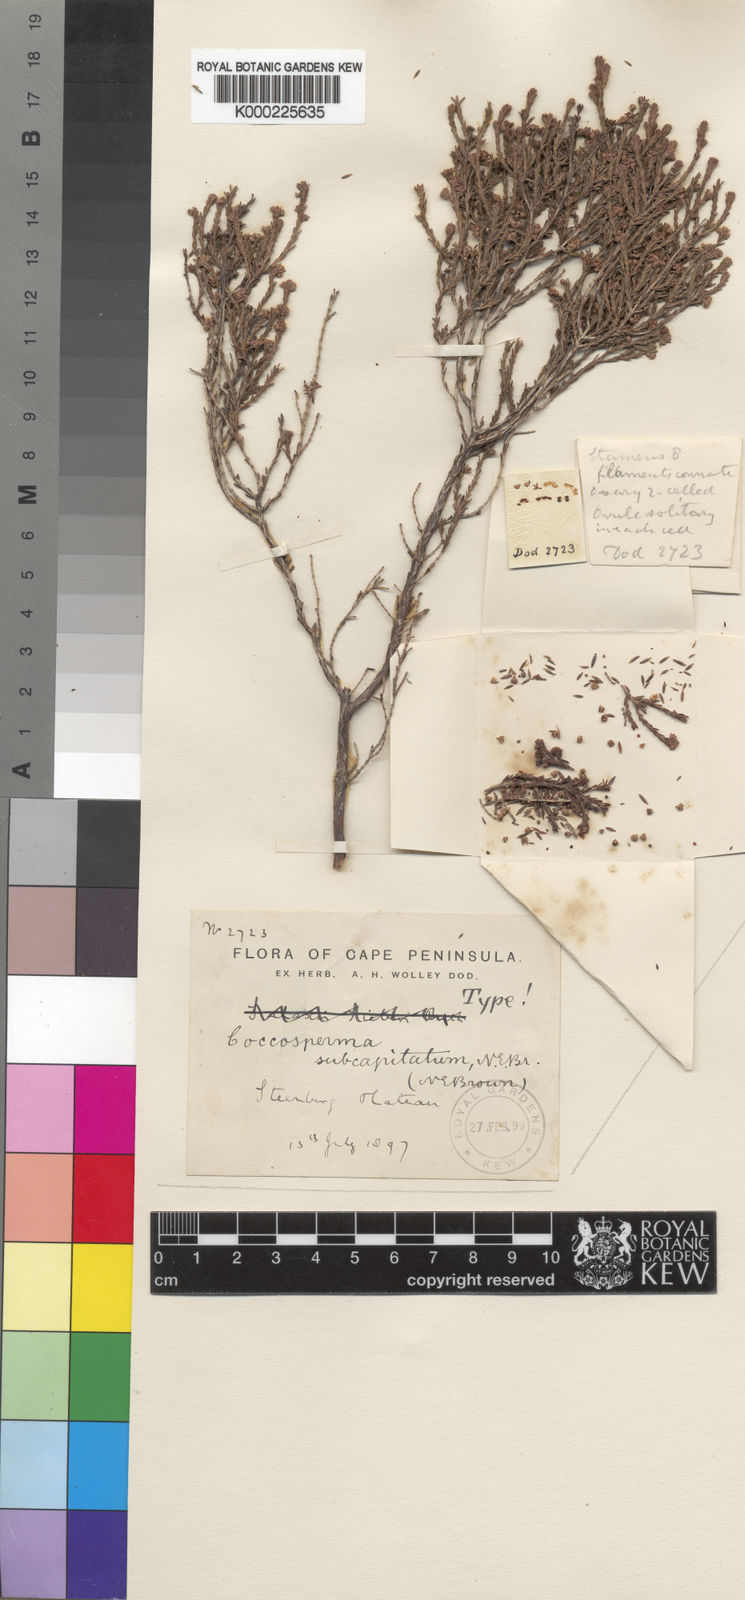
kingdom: Plantae
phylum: Tracheophyta
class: Magnoliopsida
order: Ericales
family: Ericaceae
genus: Erica
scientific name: Erica subcapitata
